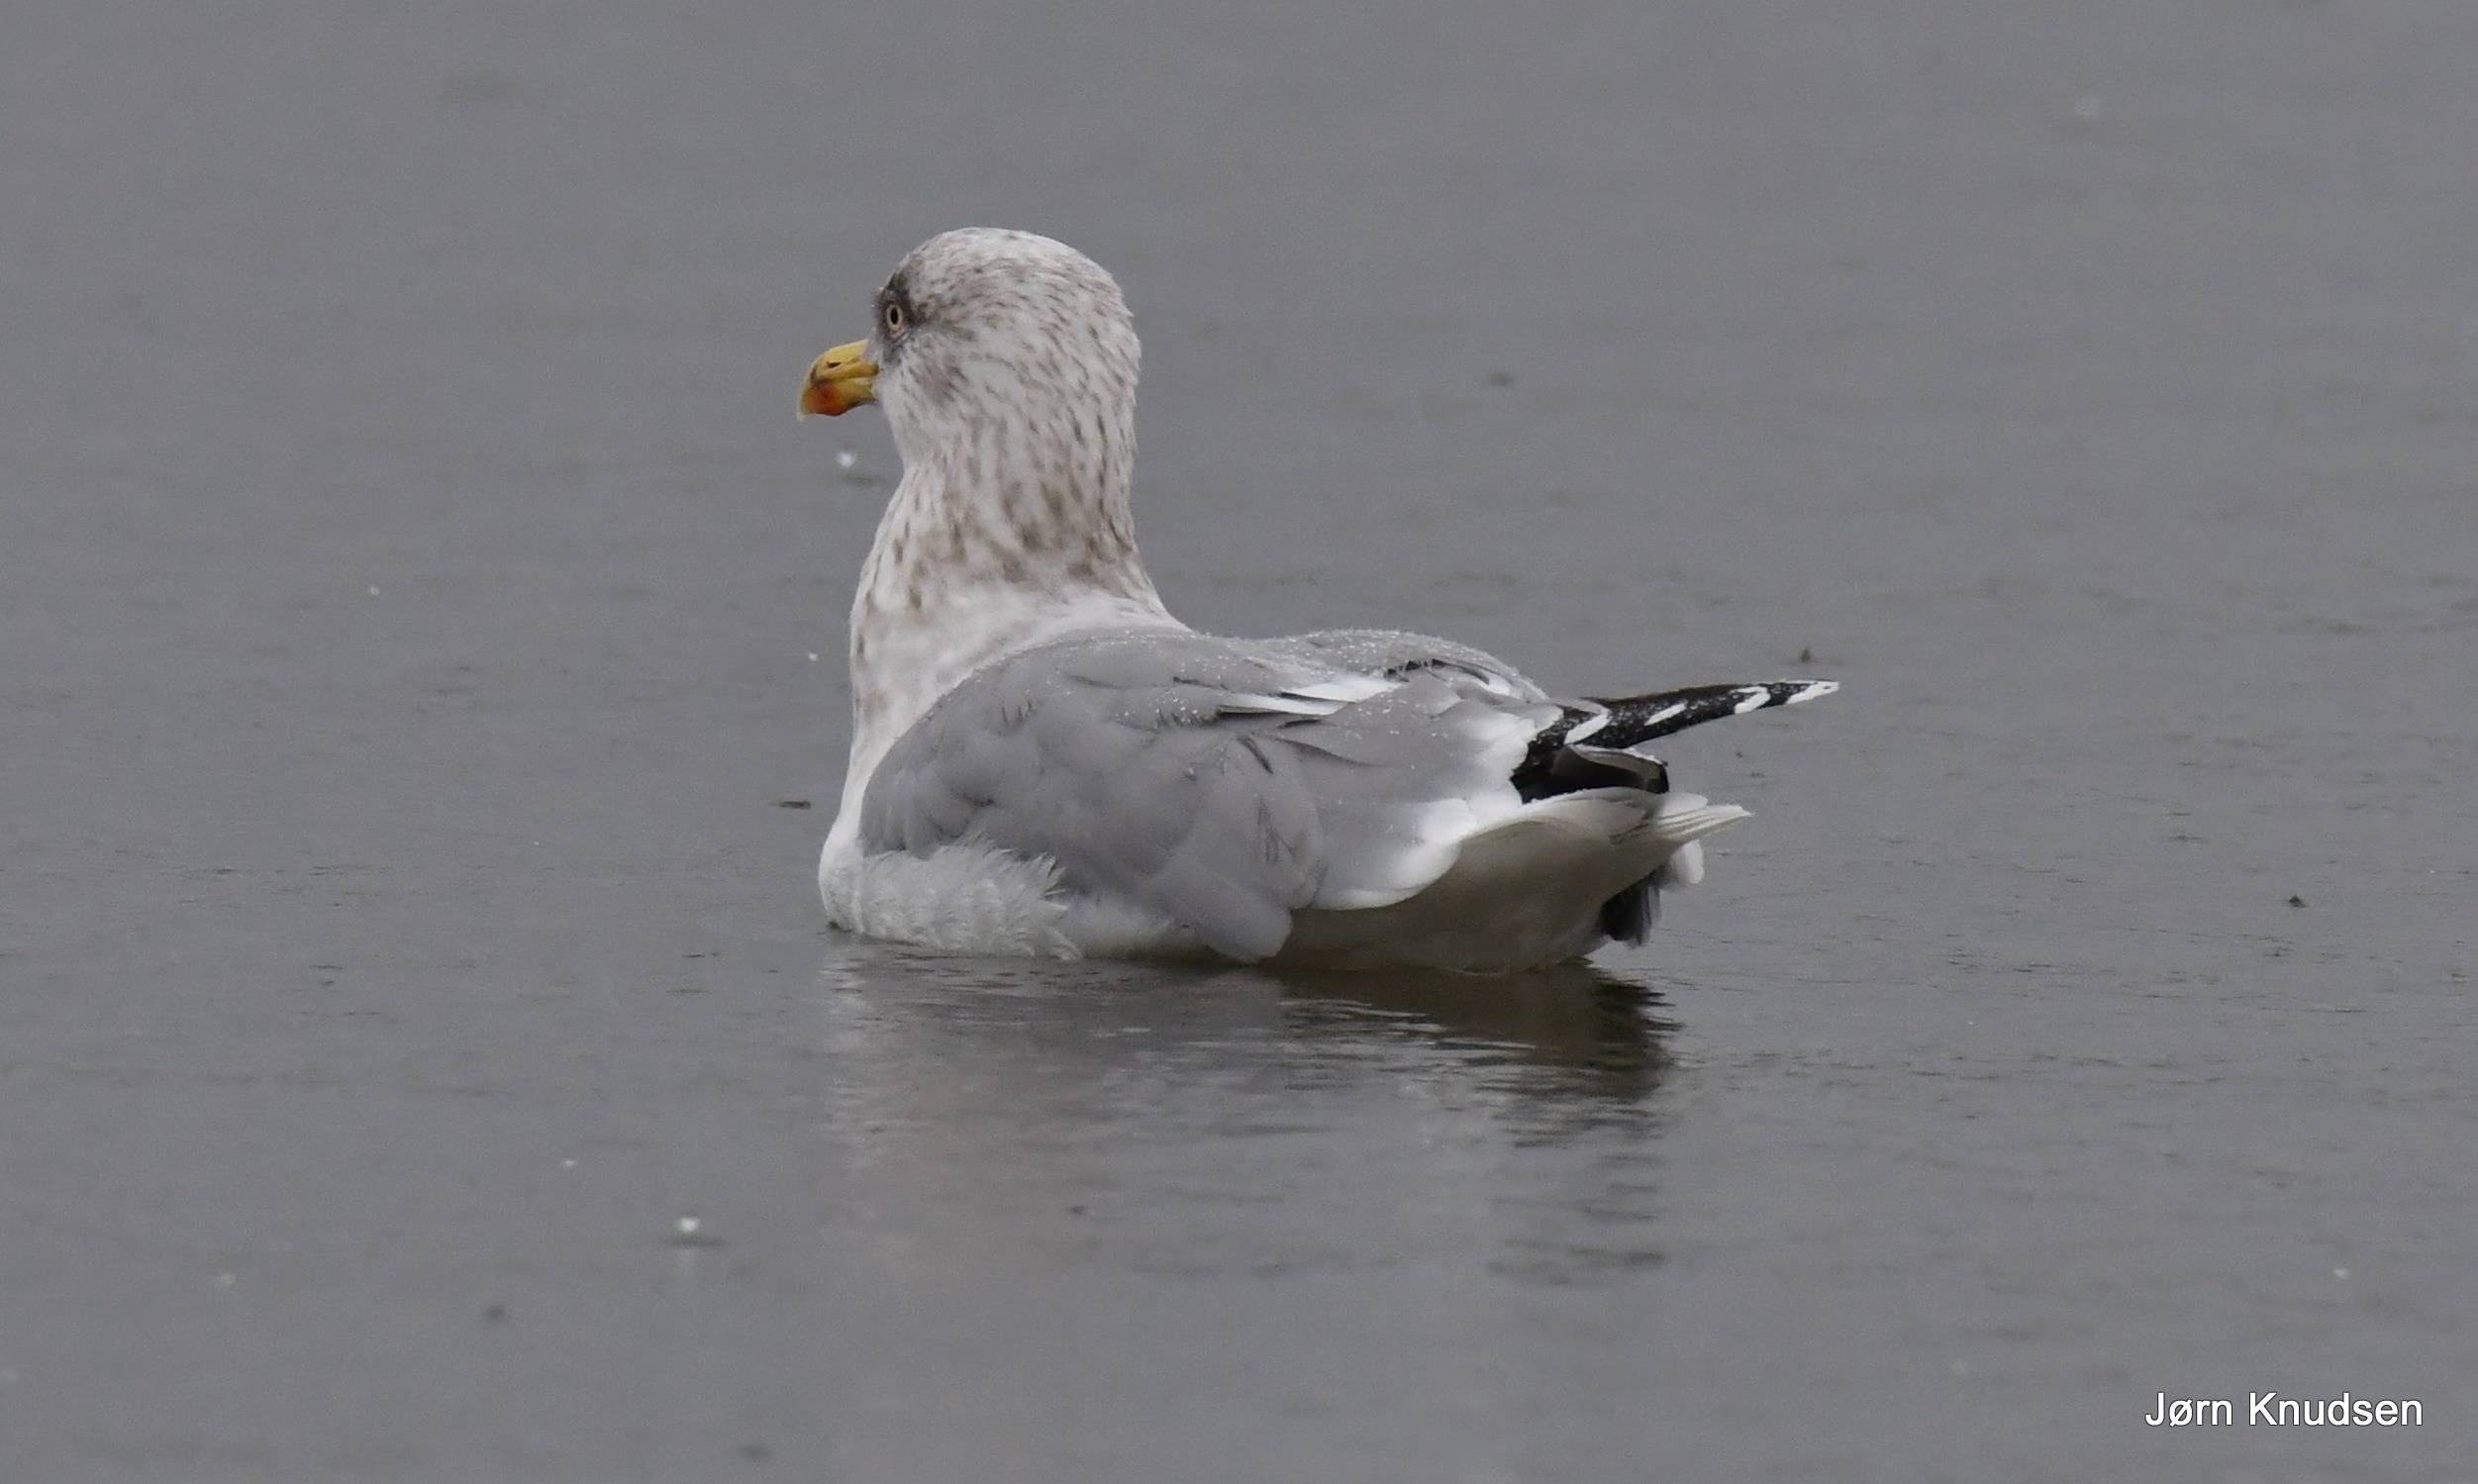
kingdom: Animalia
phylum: Chordata
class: Aves
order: Charadriiformes
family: Laridae
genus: Larus
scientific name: Larus argentatus
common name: Sølvmåge
